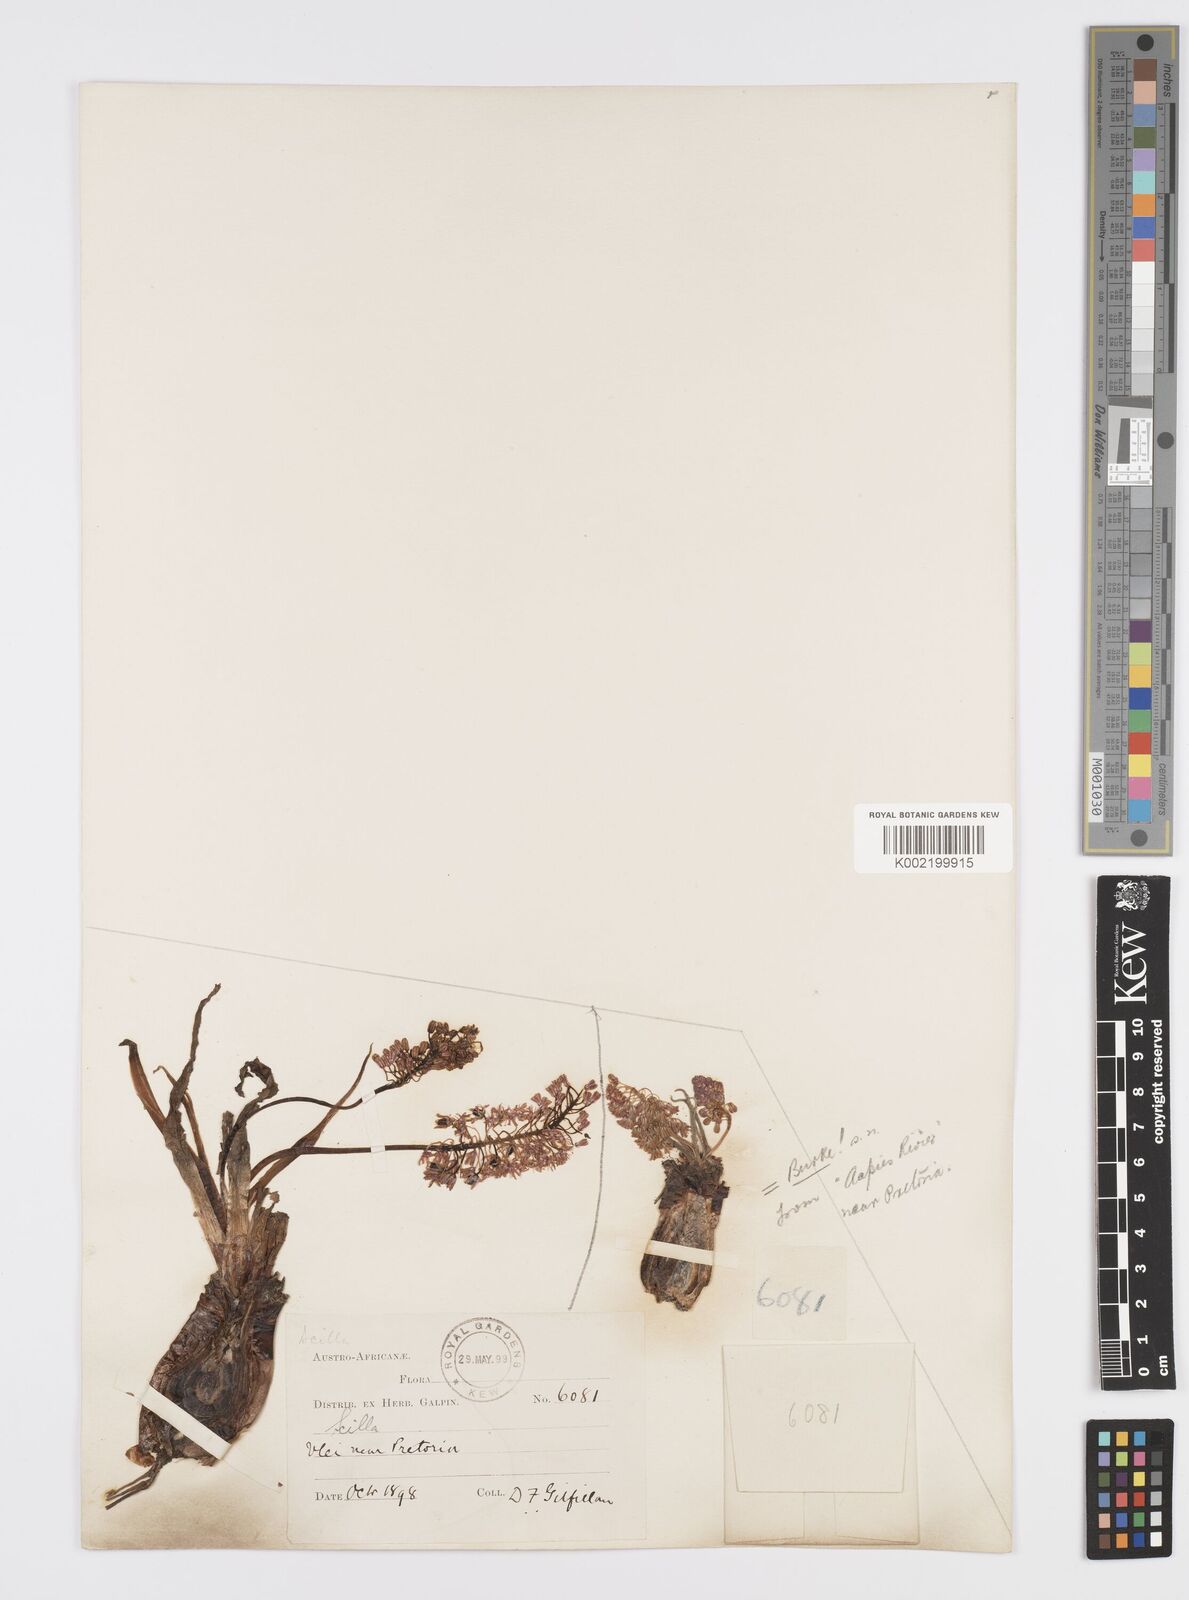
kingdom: Plantae
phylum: Tracheophyta
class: Liliopsida
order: Asparagales
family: Asparagaceae
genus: Ledebouria
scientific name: Ledebouria revoluta
